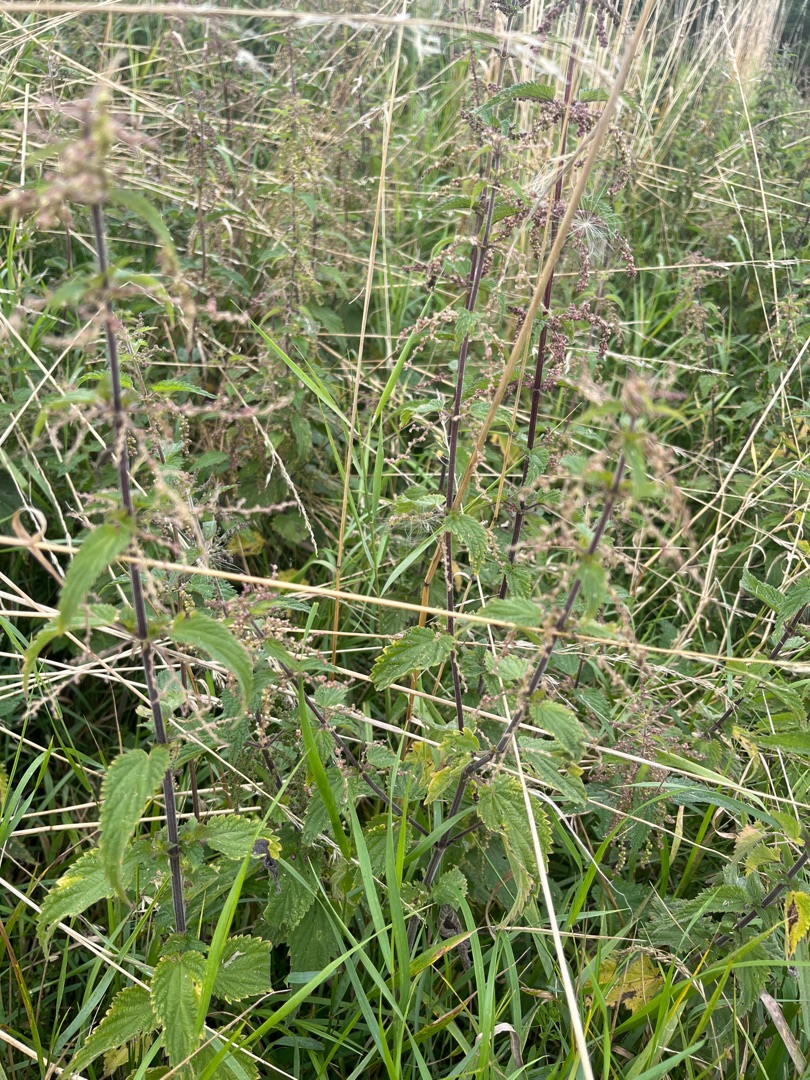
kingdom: Plantae
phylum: Tracheophyta
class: Magnoliopsida
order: Rosales
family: Urticaceae
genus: Urtica
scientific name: Urtica dioica
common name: Stor nælde
